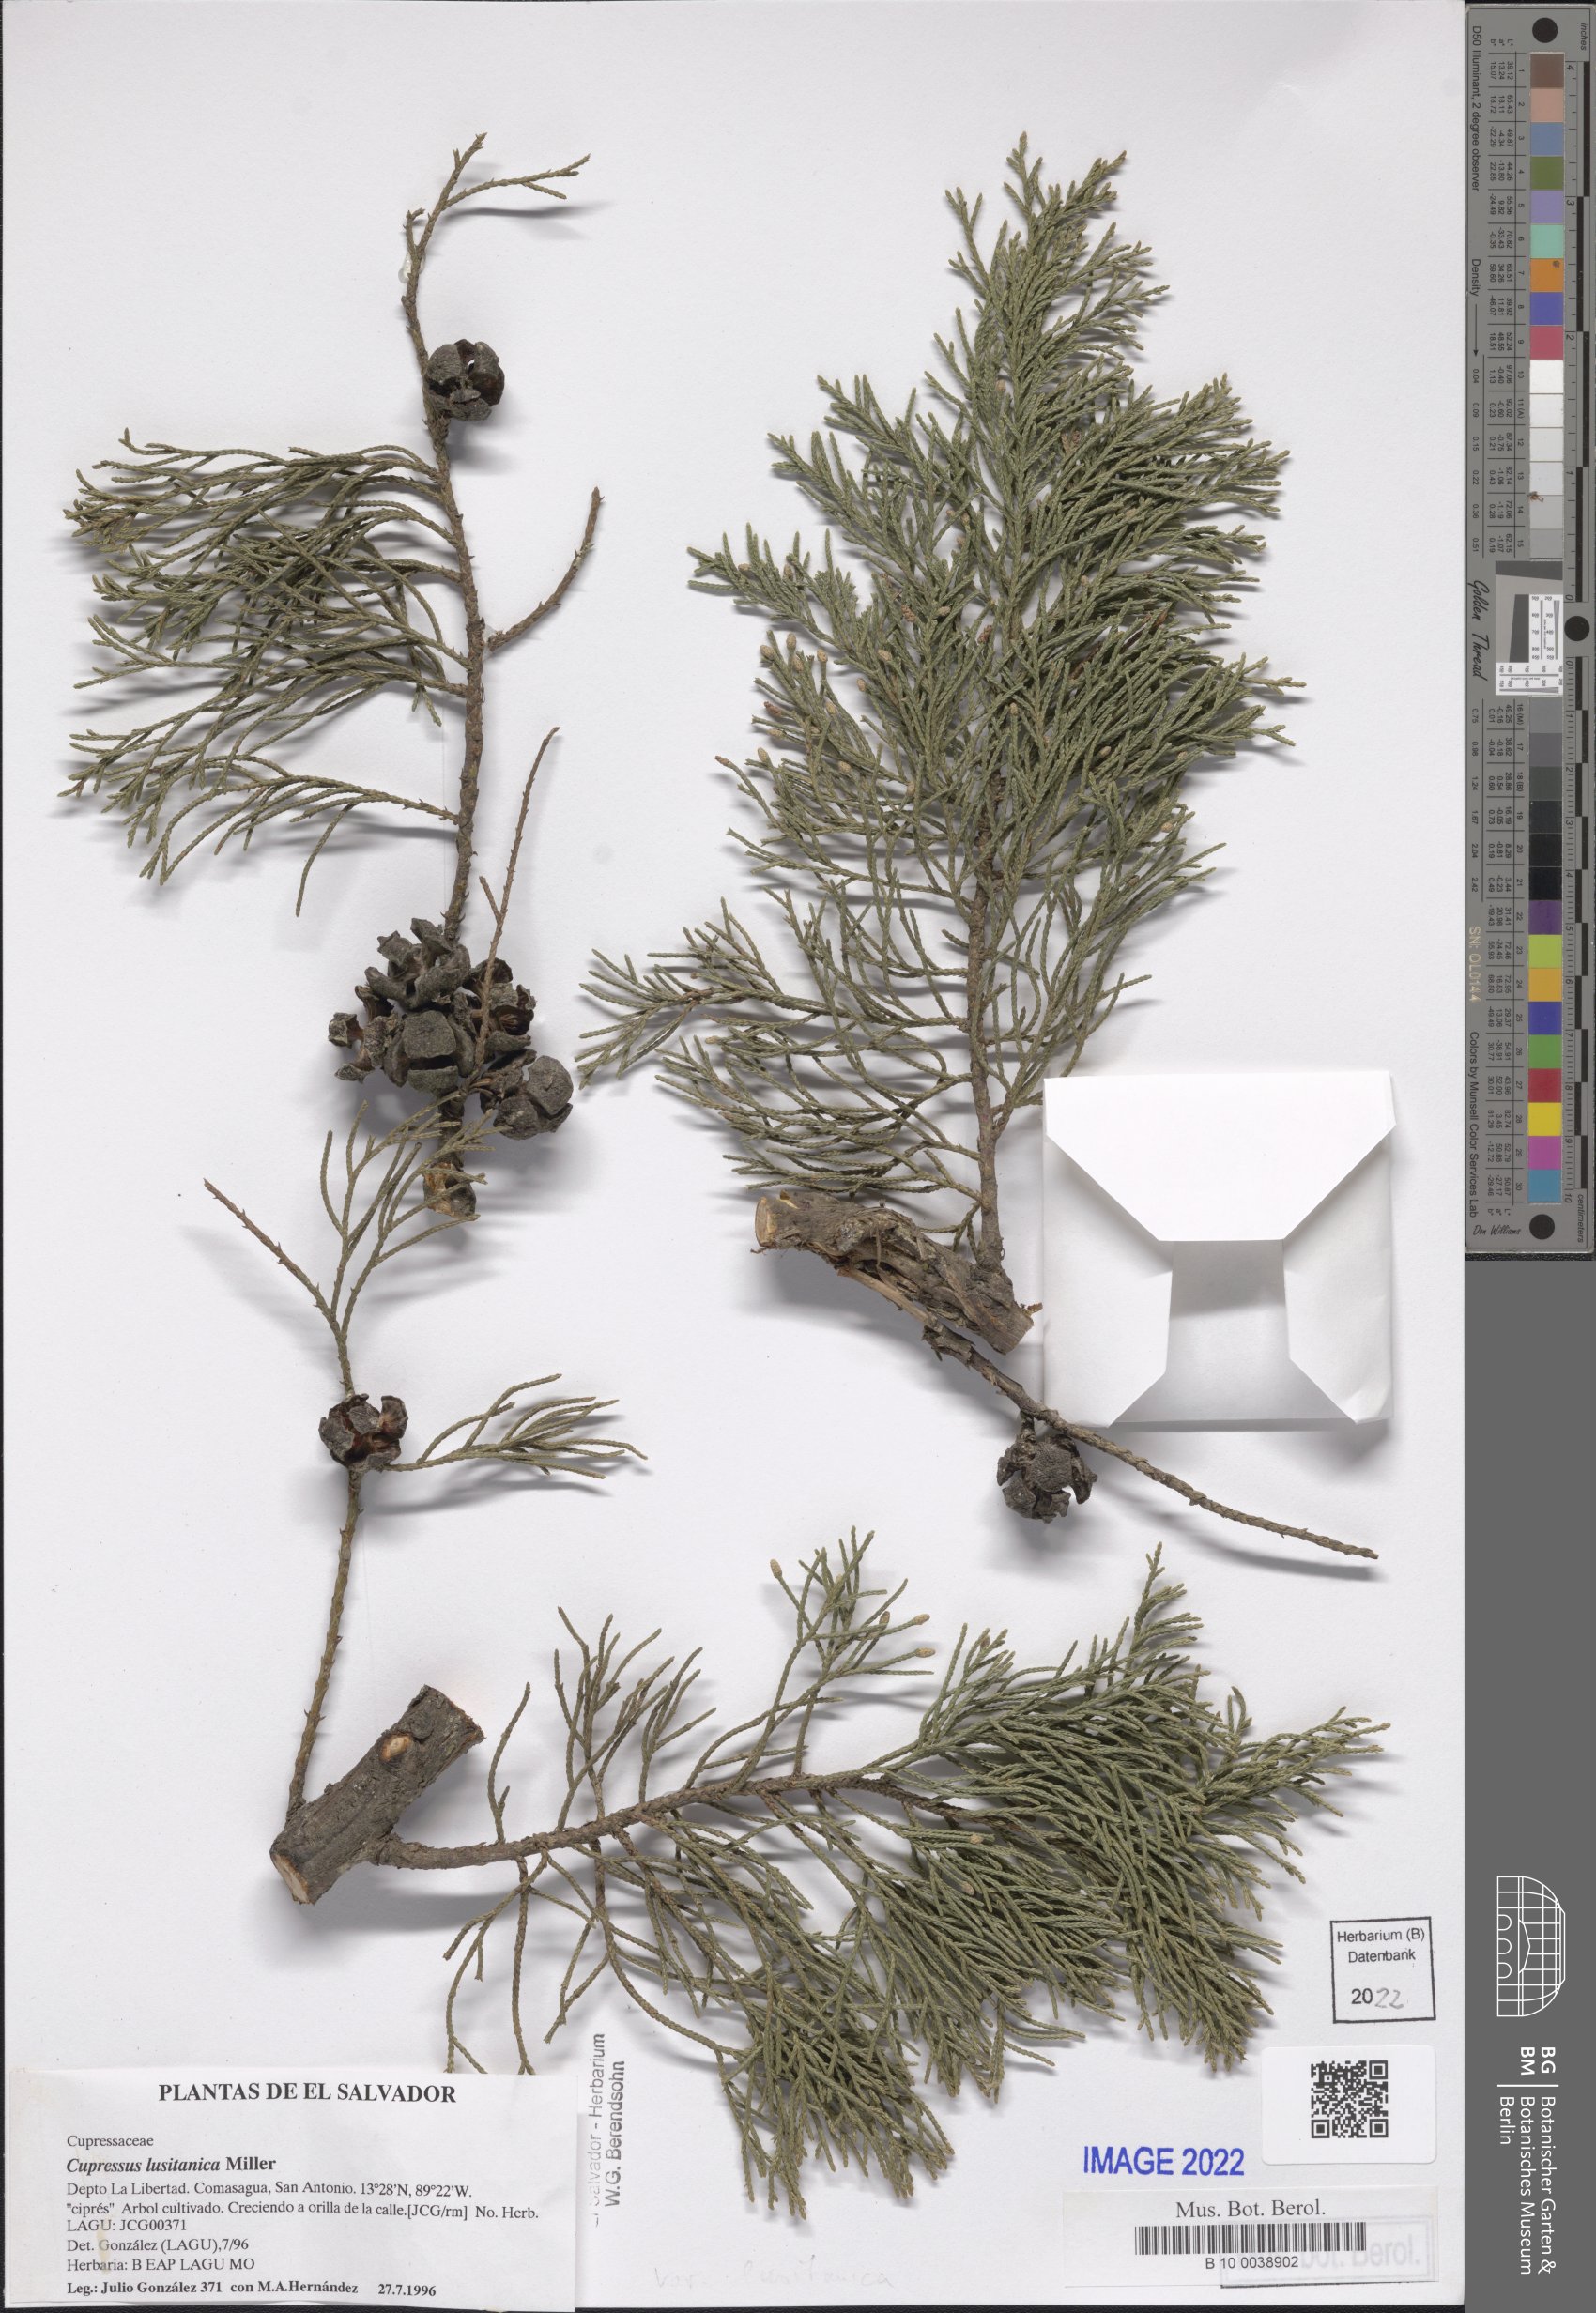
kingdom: Plantae
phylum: Tracheophyta
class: Pinopsida
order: Pinales
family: Cupressaceae
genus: Cupressus
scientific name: Cupressus lusitanica
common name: Mexican cypress
